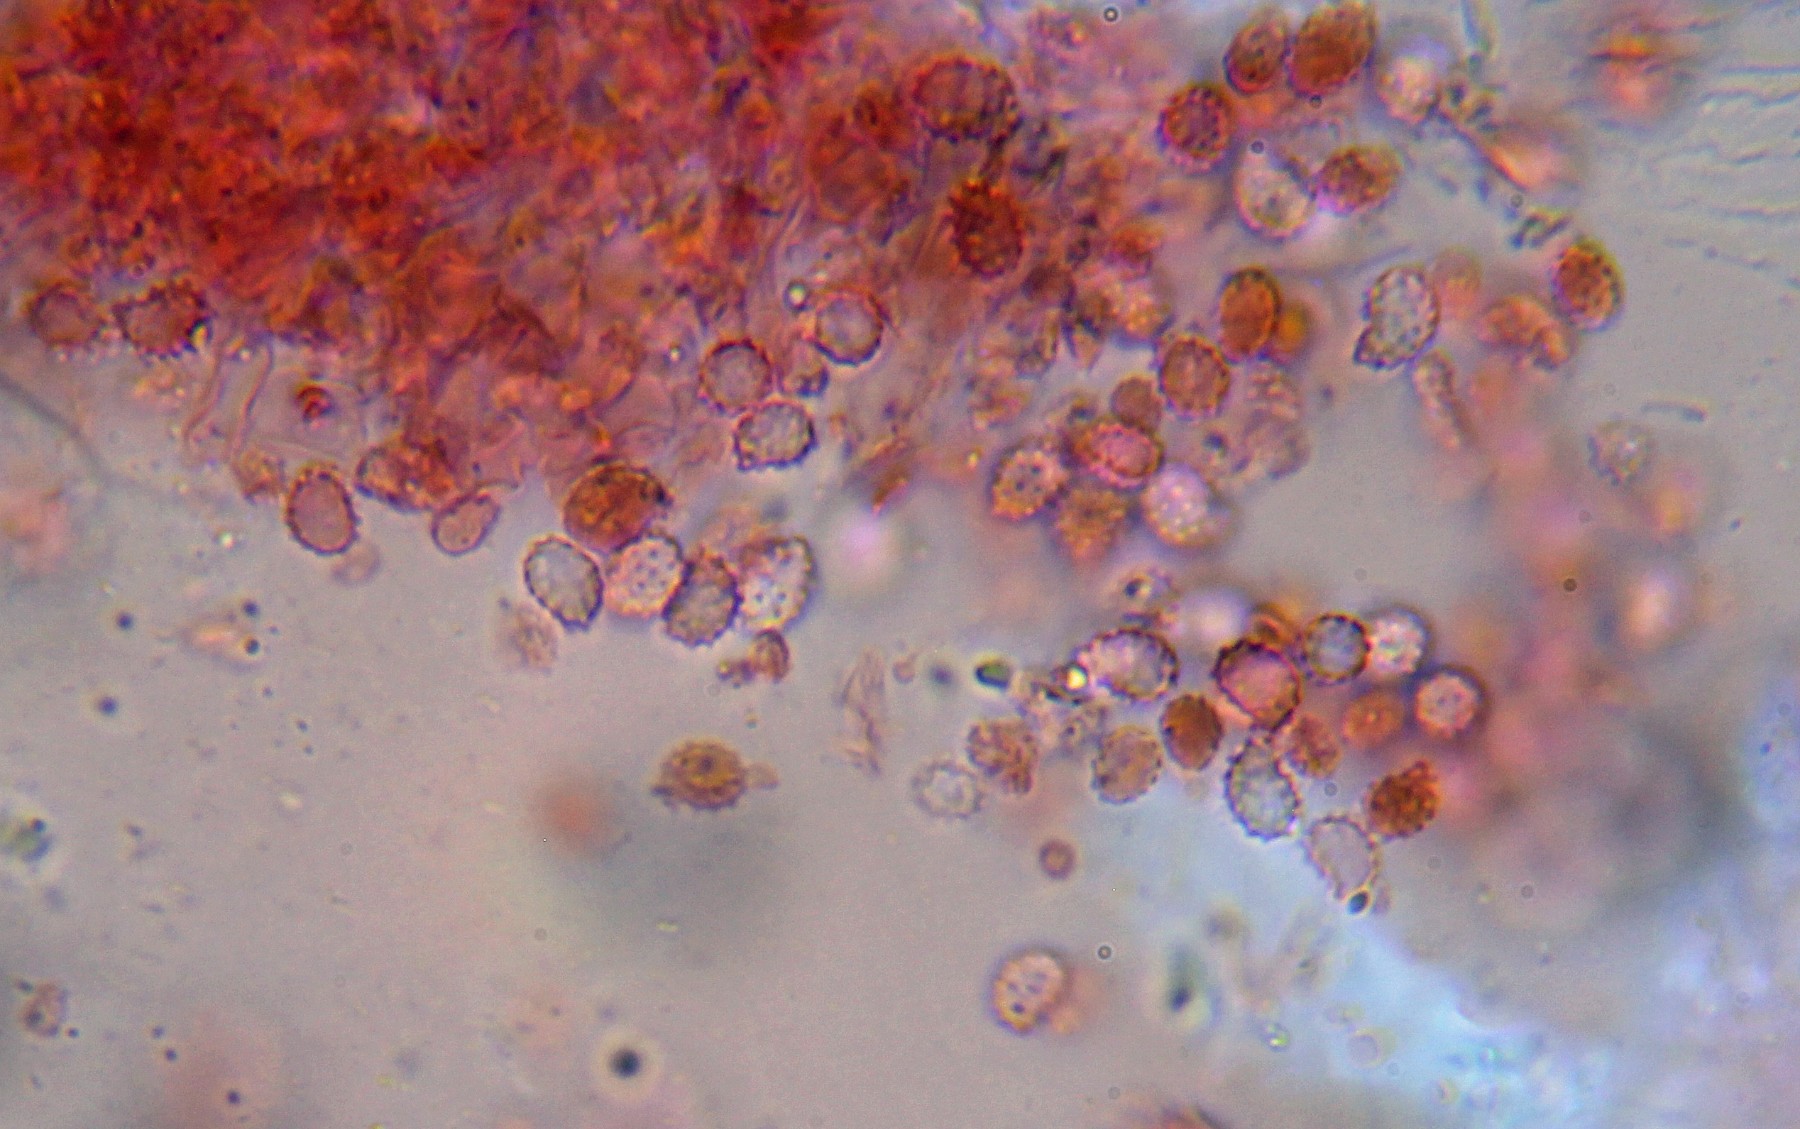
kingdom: Fungi
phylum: Basidiomycota
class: Agaricomycetes
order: Trechisporales
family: Sistotremataceae
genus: Trechispora
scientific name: Trechispora
